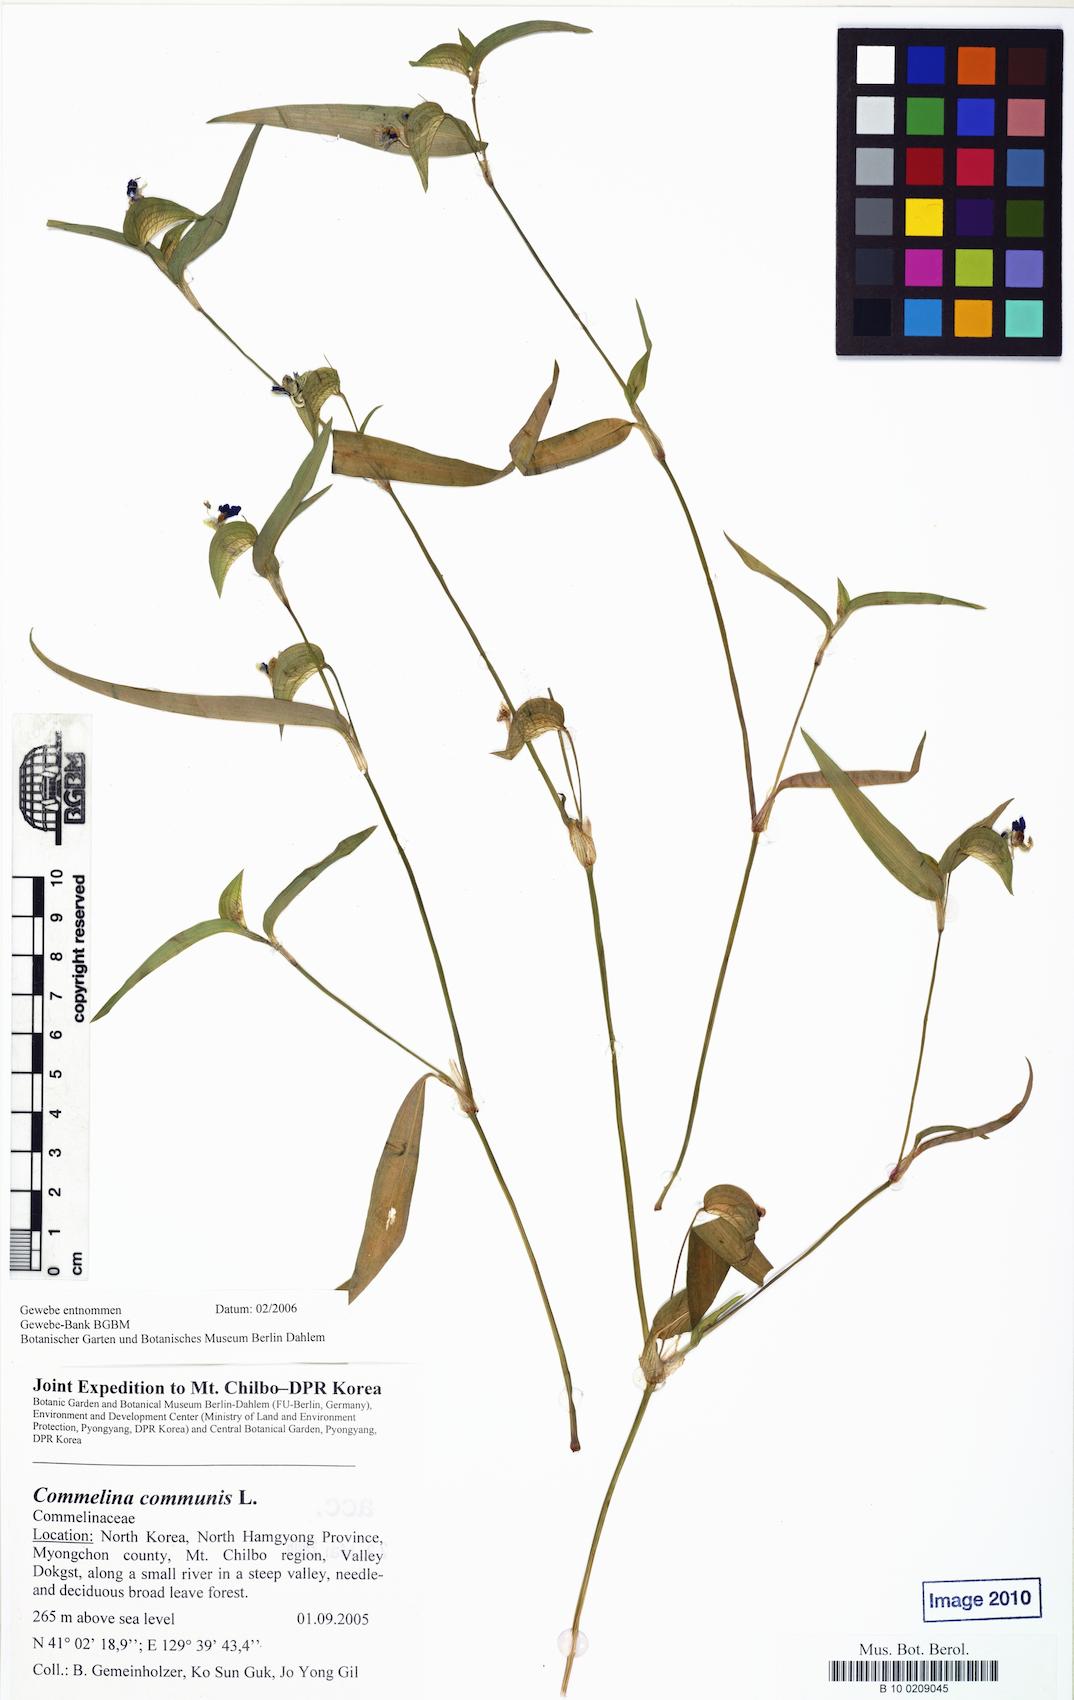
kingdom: Plantae
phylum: Tracheophyta
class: Liliopsida
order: Commelinales
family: Commelinaceae
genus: Commelina
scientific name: Commelina communis
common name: Asiatic dayflower
